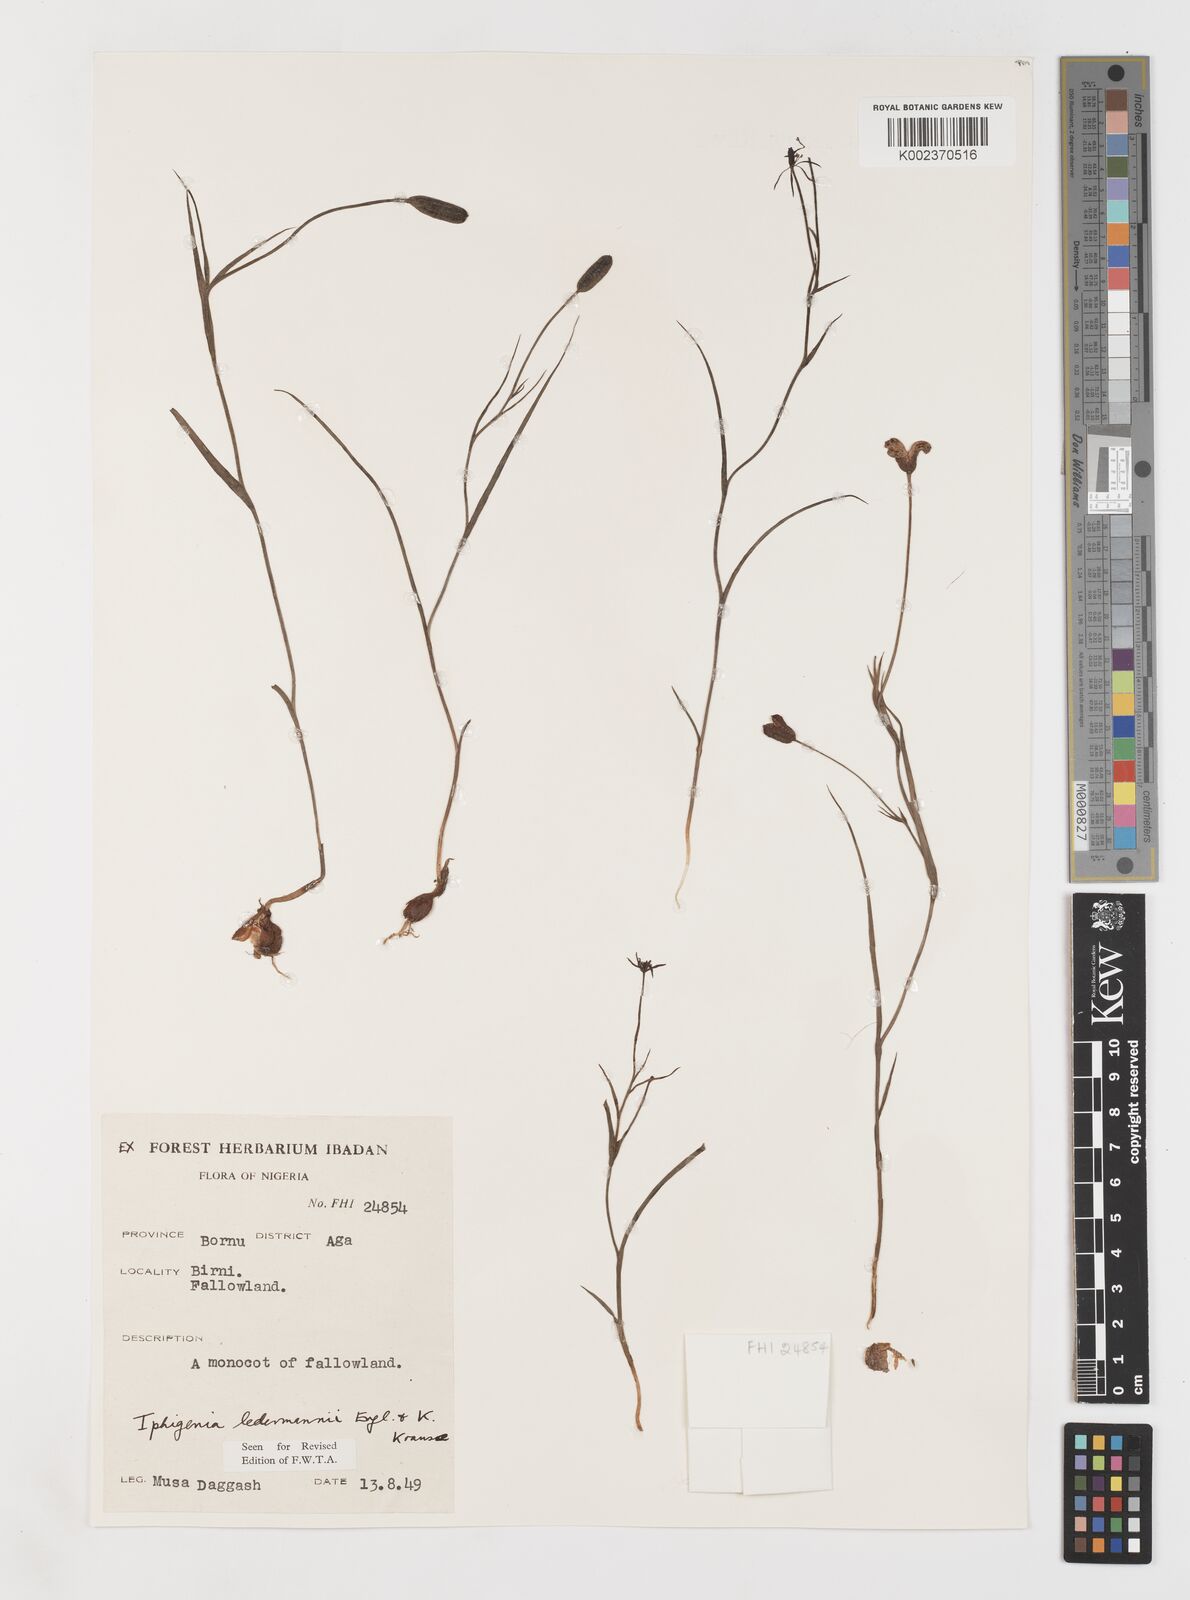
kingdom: Plantae
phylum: Tracheophyta
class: Liliopsida
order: Liliales
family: Colchicaceae
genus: Iphigenia
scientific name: Iphigenia pauciflora
